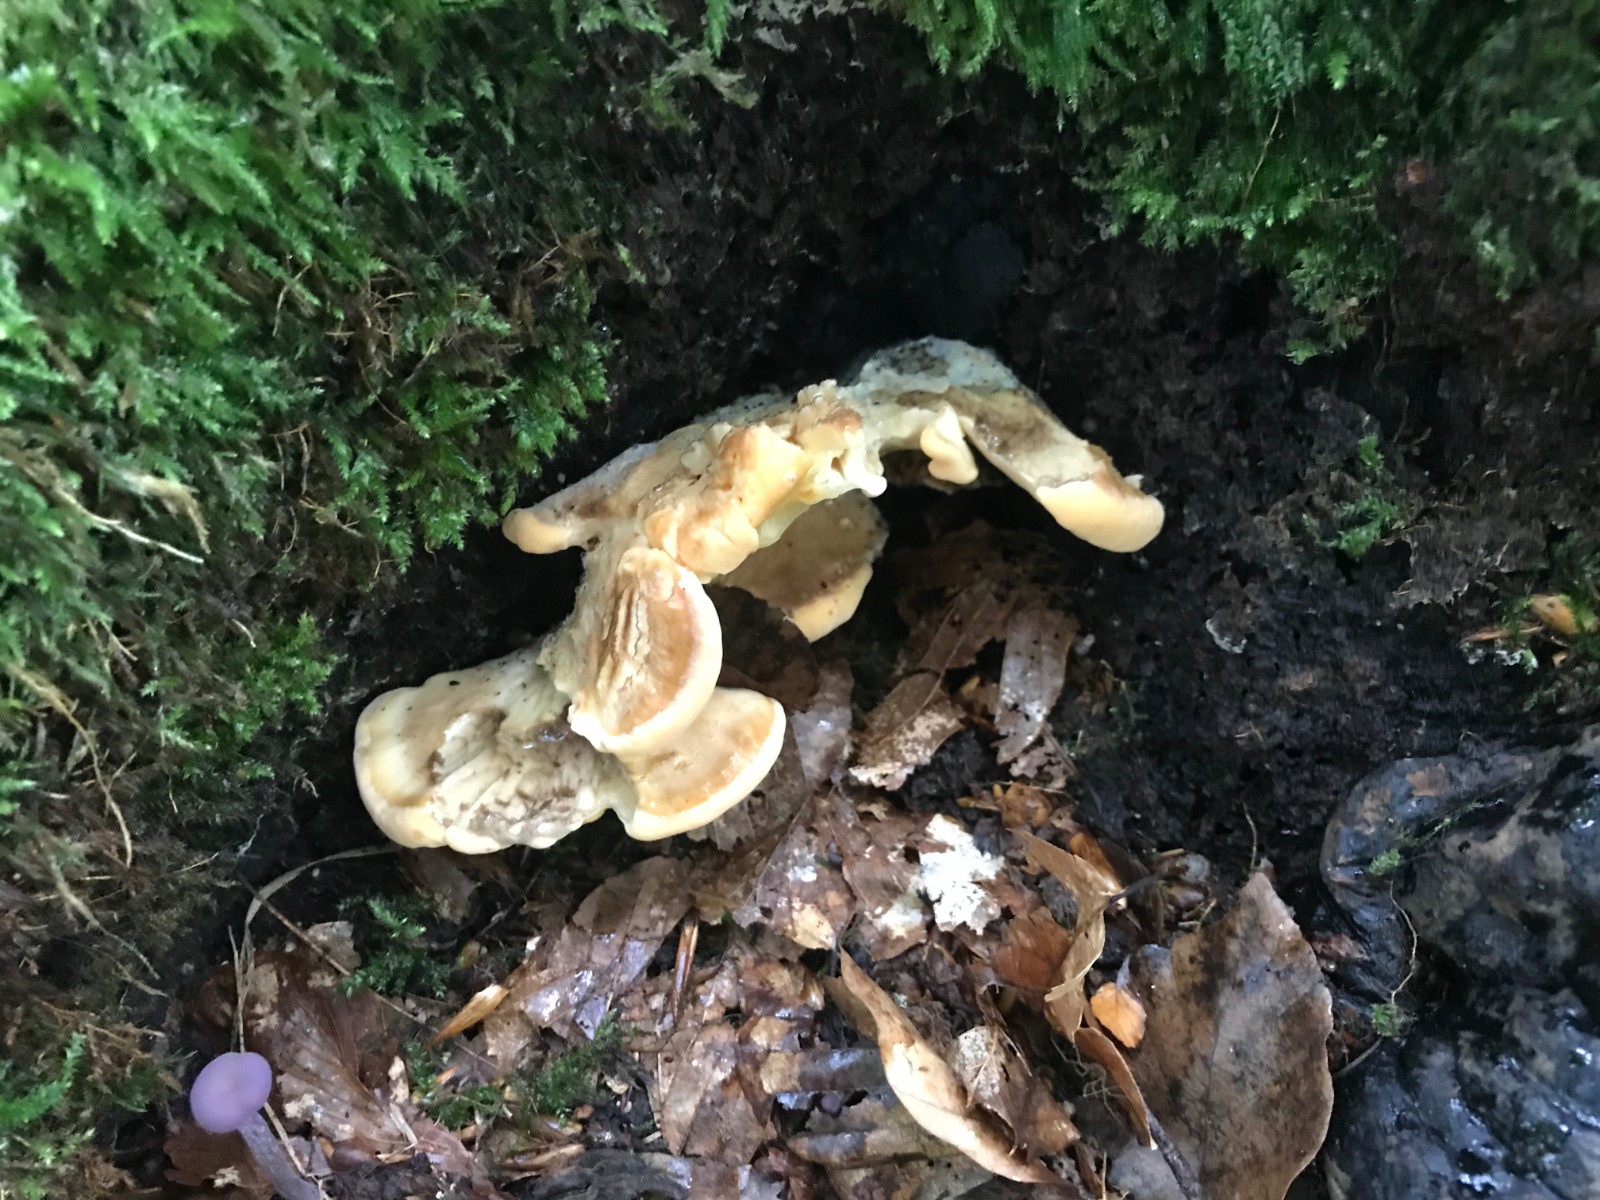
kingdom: Fungi
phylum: Basidiomycota
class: Agaricomycetes
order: Polyporales
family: Meripilaceae
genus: Meripilus
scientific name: Meripilus giganteus
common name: kæmpeporesvamp
